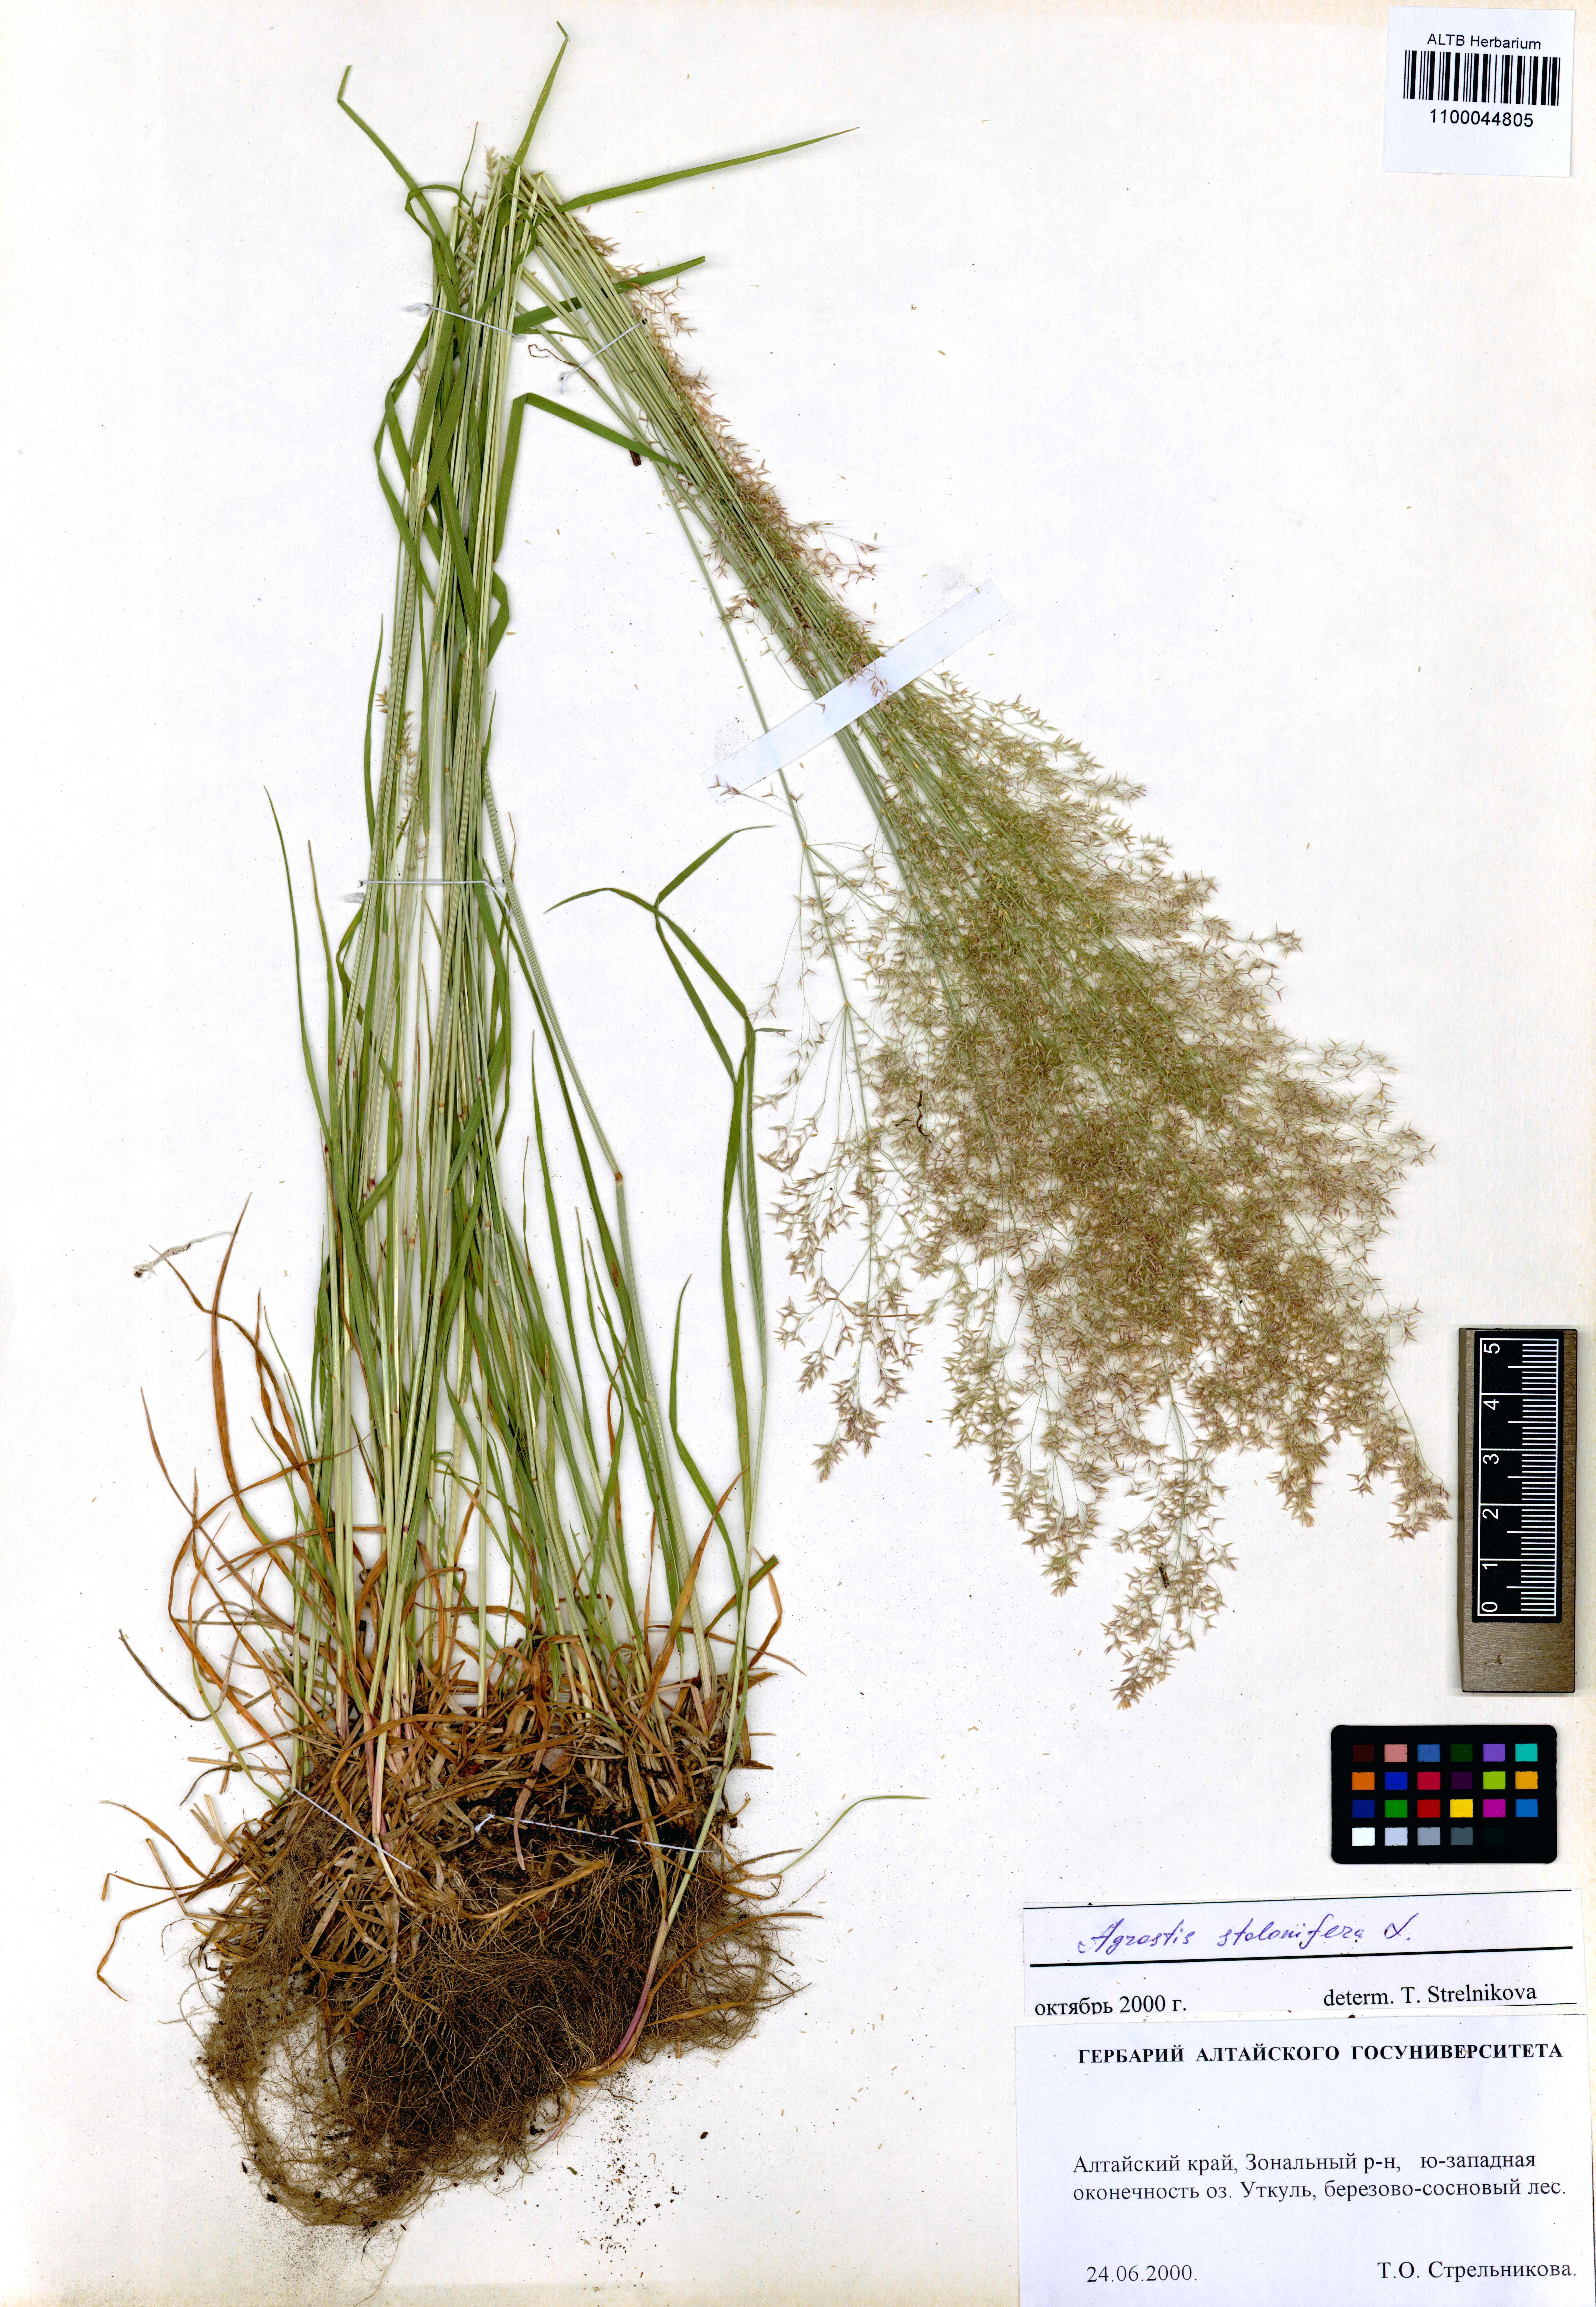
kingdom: Plantae
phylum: Tracheophyta
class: Liliopsida
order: Poales
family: Poaceae
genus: Agrostis
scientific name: Agrostis stolonifera
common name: Creeping bentgrass
